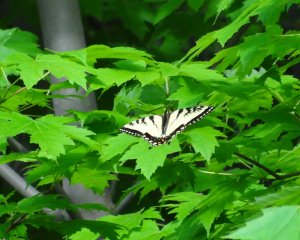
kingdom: Animalia
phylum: Arthropoda
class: Insecta
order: Lepidoptera
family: Papilionidae
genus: Pterourus
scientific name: Pterourus glaucus
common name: Eastern Tiger Swallowtail
